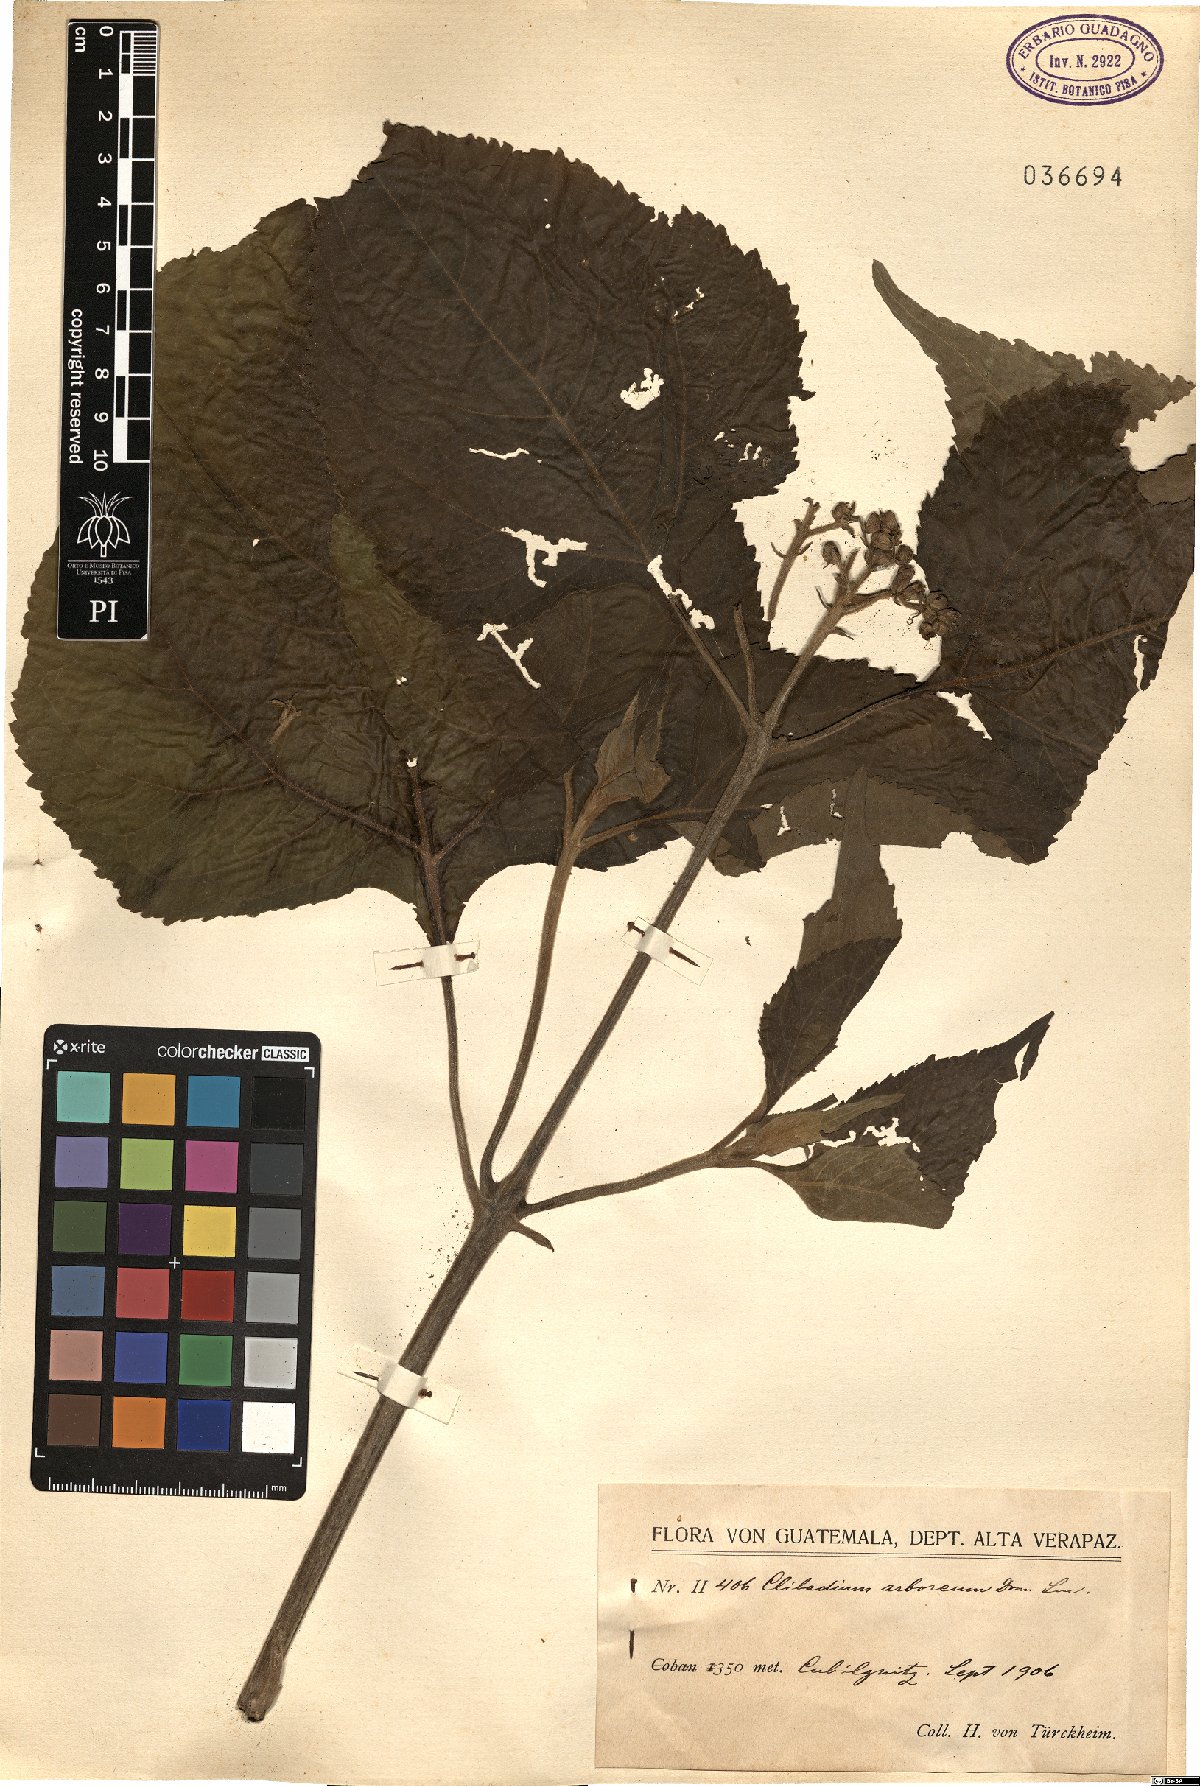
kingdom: Plantae
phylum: Tracheophyta
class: Magnoliopsida
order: Asterales
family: Asteraceae
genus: Clibadium
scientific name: Clibadium arboreum
